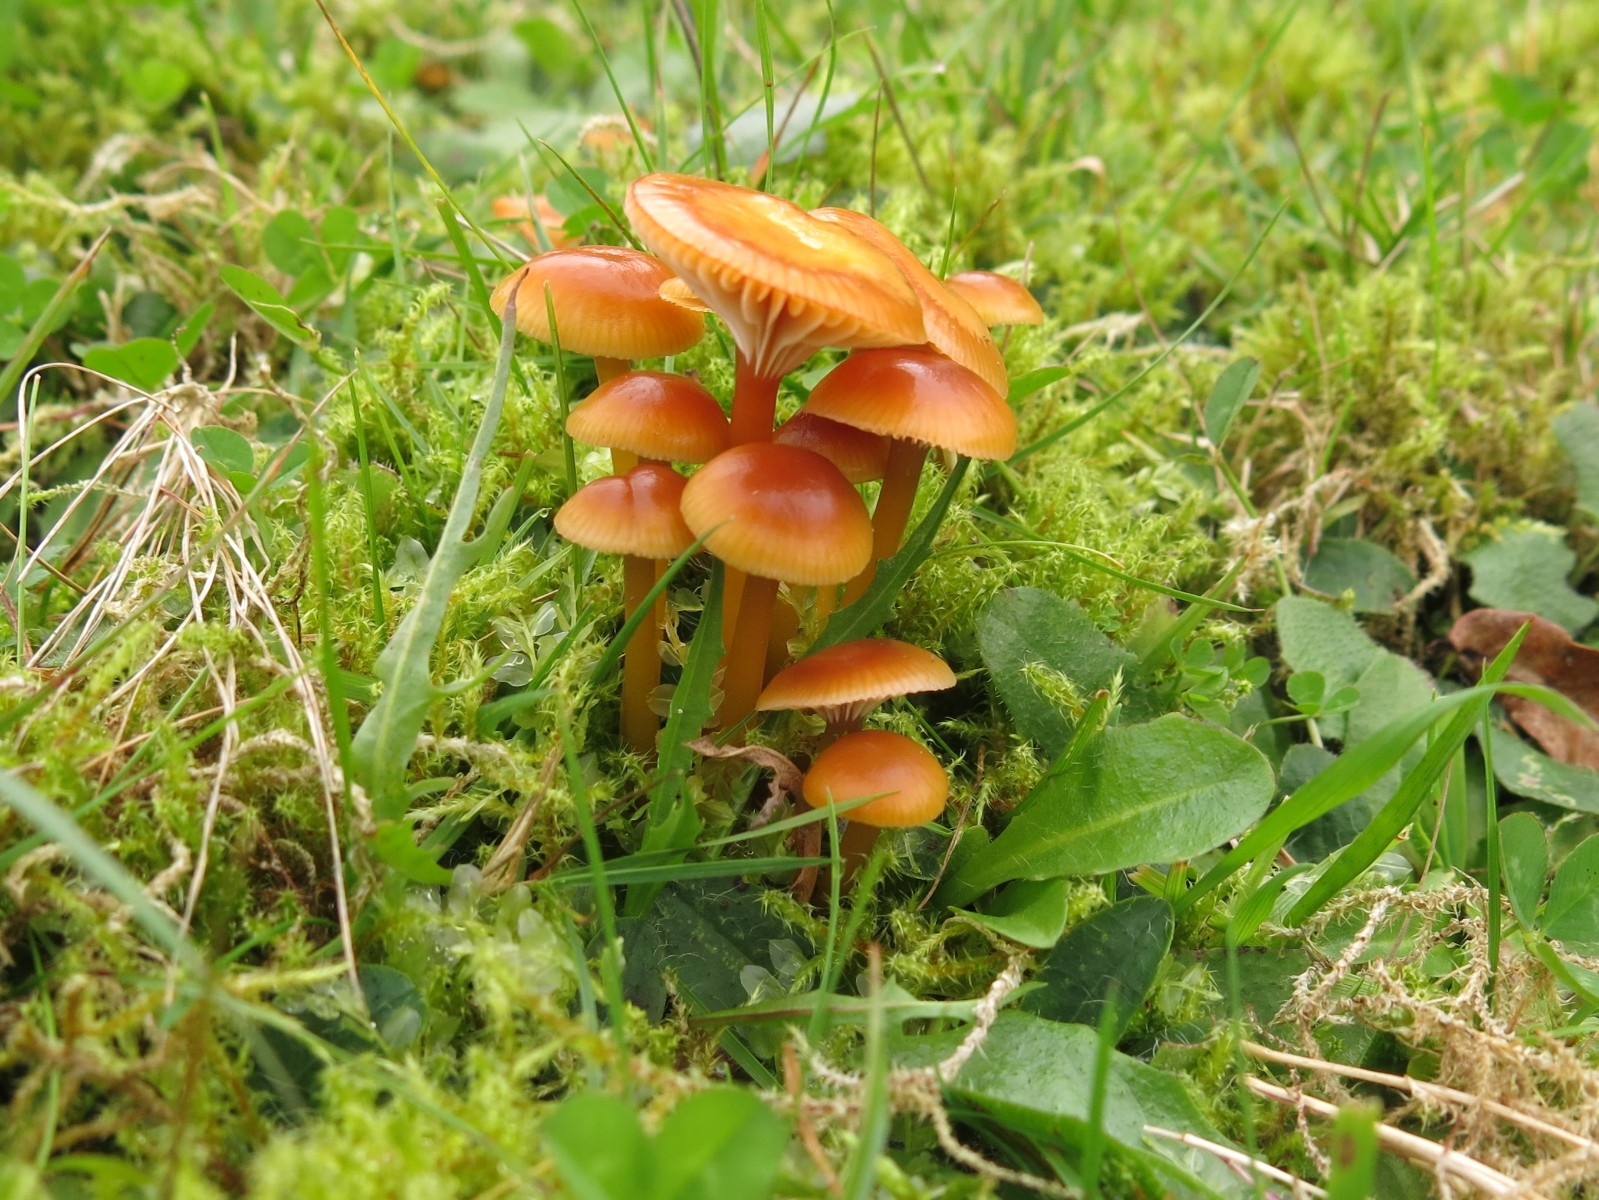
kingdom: Fungi
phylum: Basidiomycota
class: Agaricomycetes
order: Agaricales
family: Hygrophoraceae
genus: Gliophorus
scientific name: Gliophorus laetus
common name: brusk-vokshat
